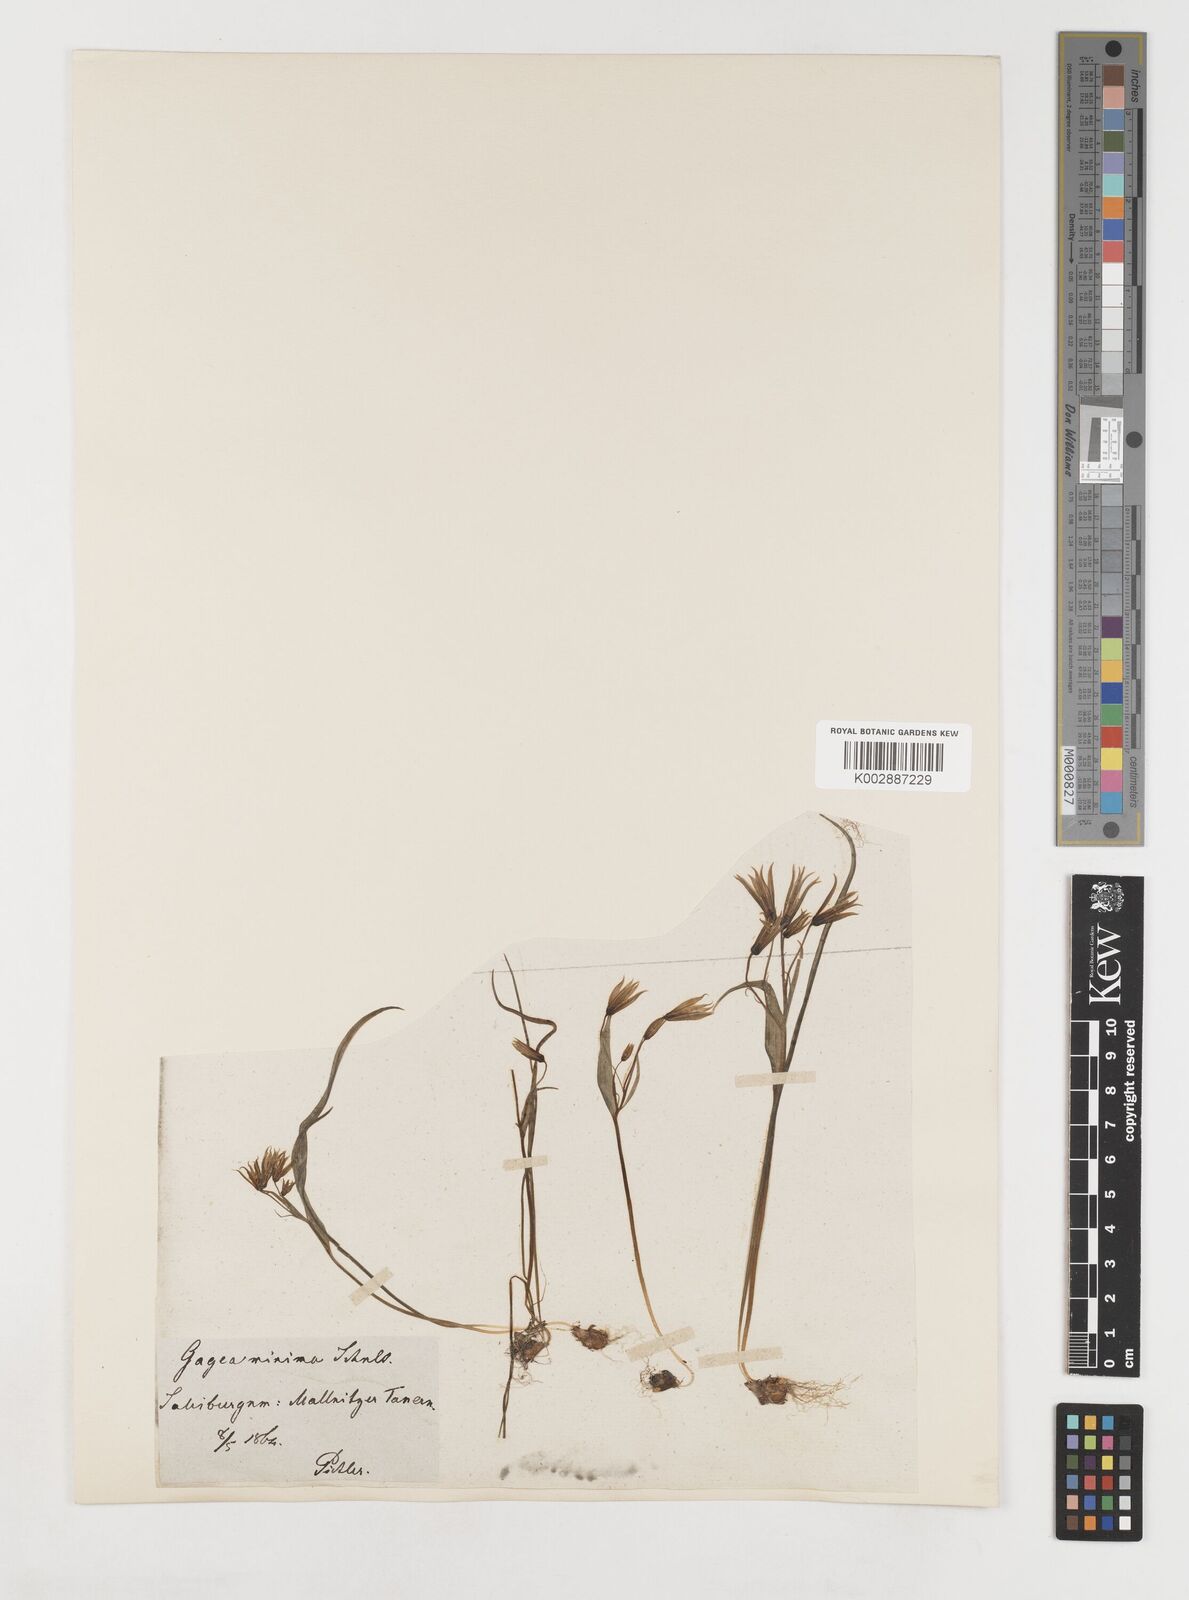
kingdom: Plantae
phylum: Tracheophyta
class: Liliopsida
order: Liliales
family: Liliaceae
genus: Gagea
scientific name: Gagea minima
